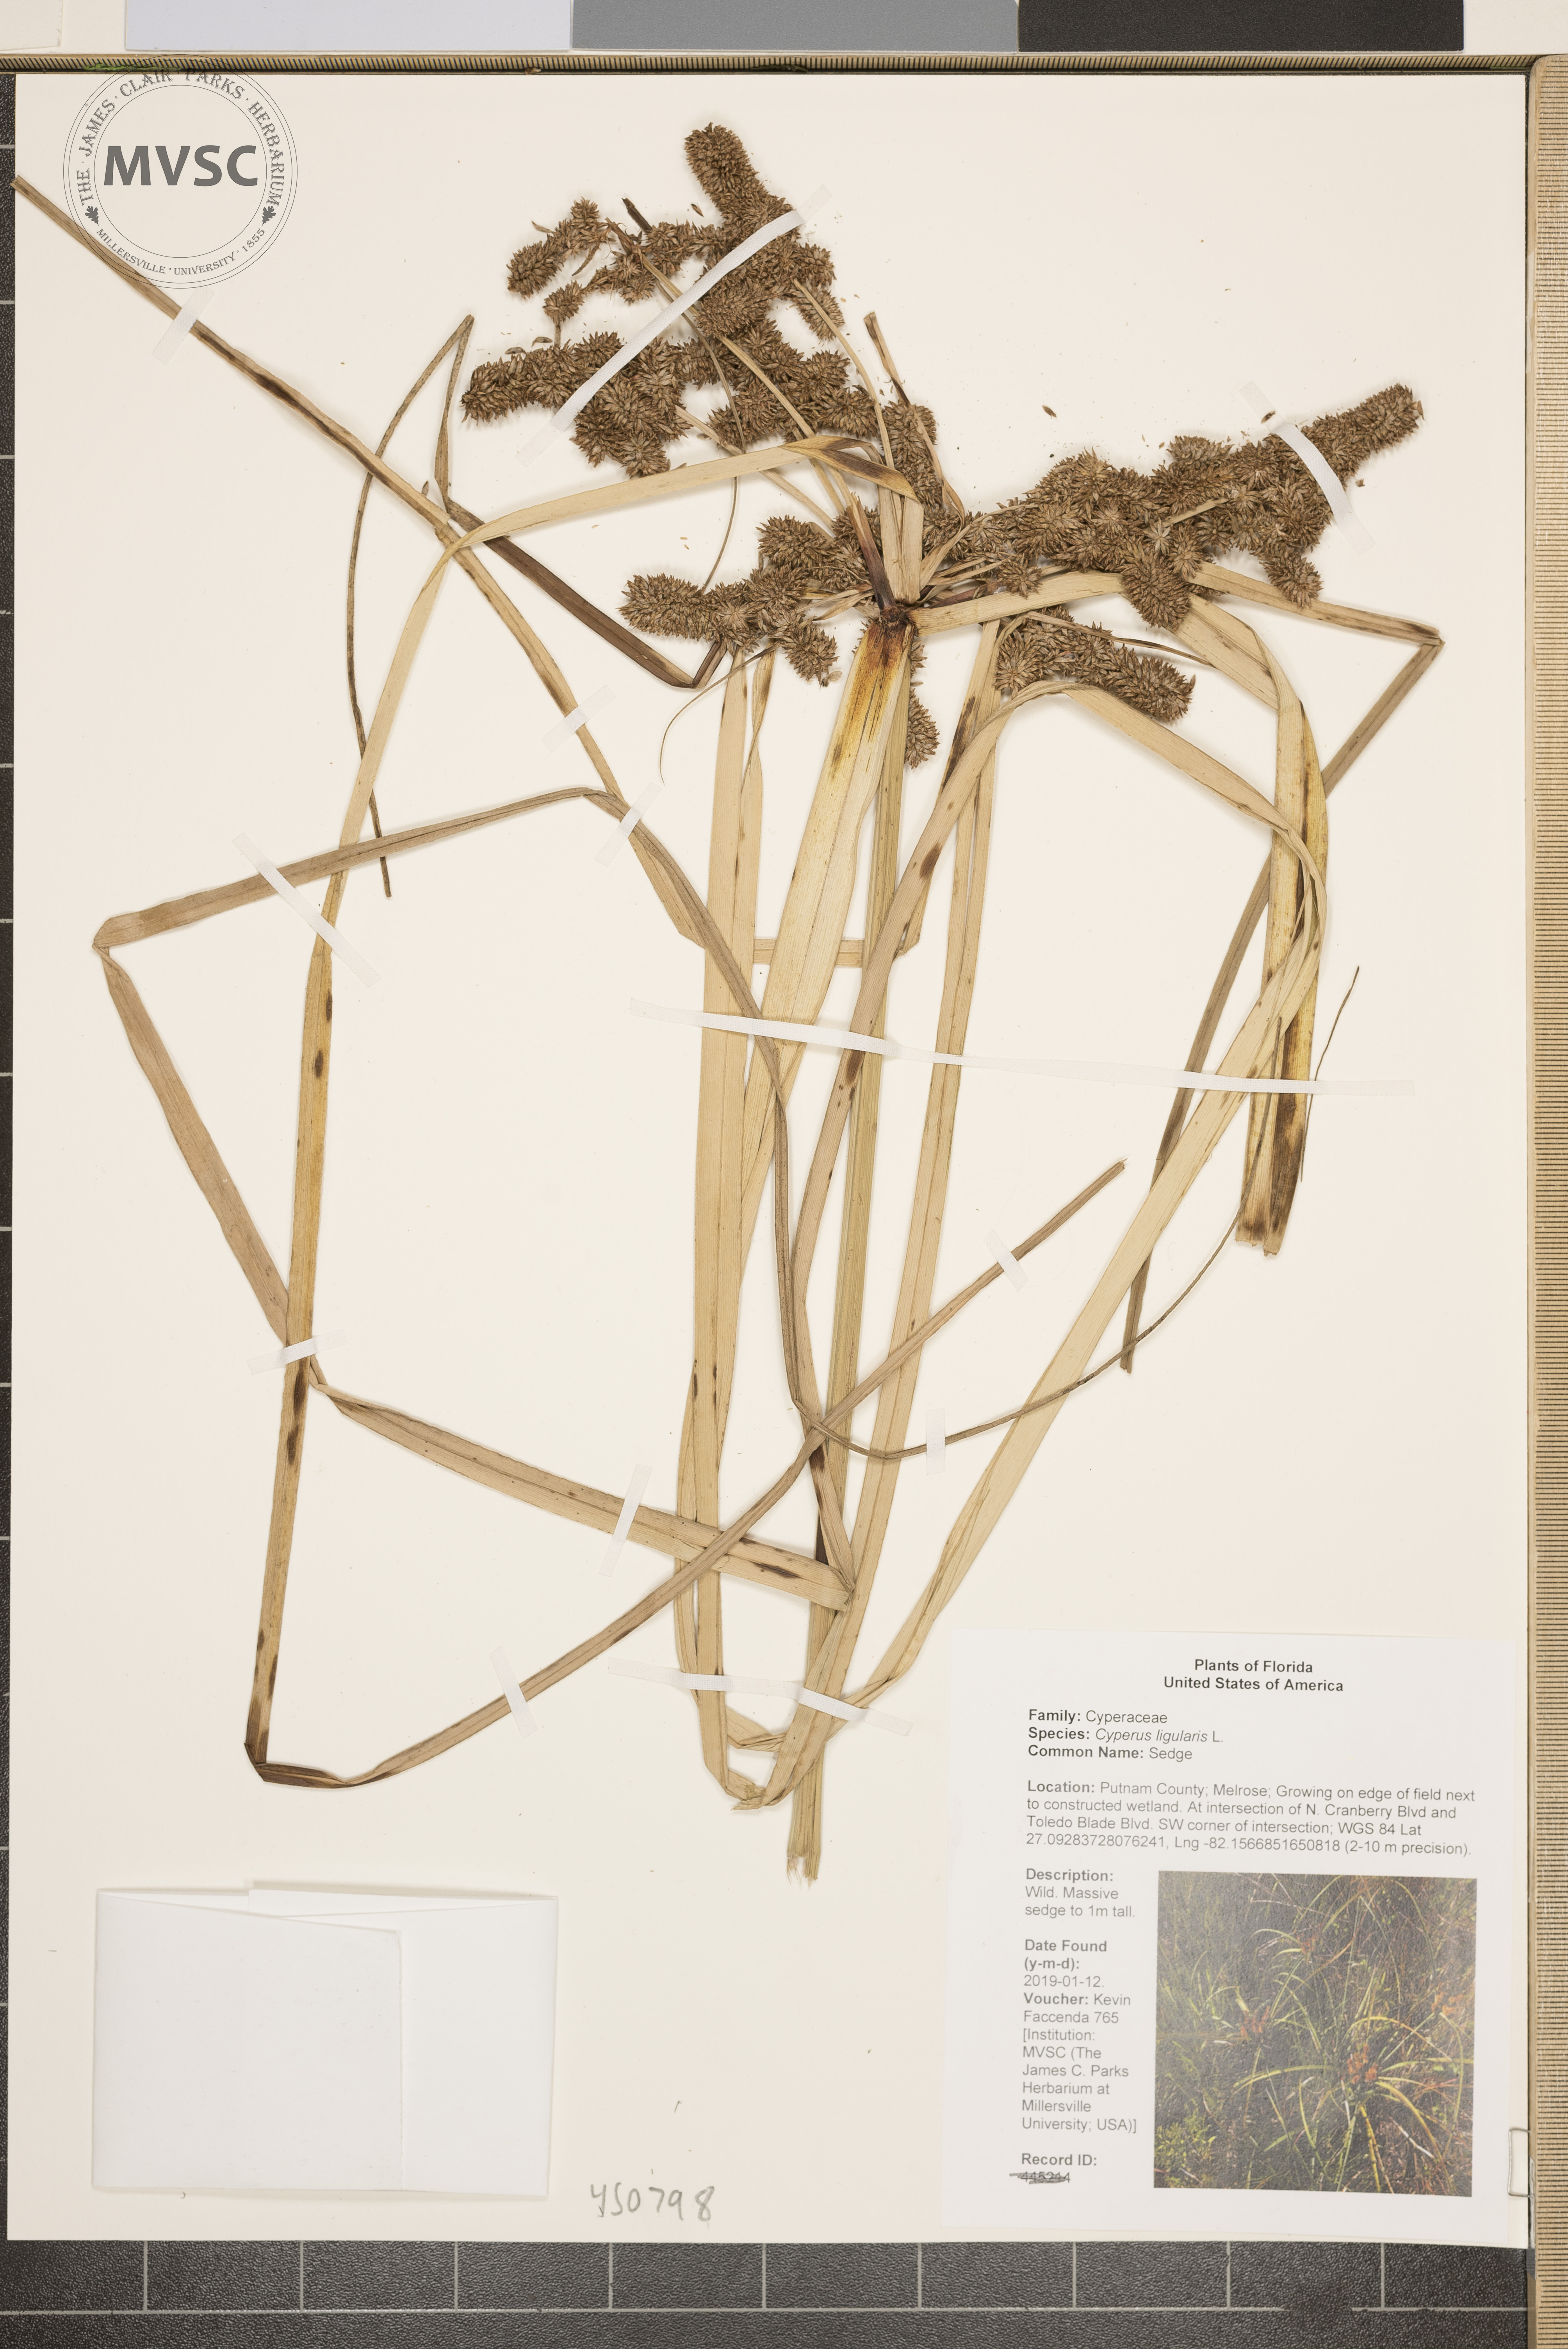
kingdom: Plantae
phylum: Tracheophyta
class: Liliopsida
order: Poales
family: Cyperaceae
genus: Cyperus
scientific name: Cyperus ligularis
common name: Sedge
